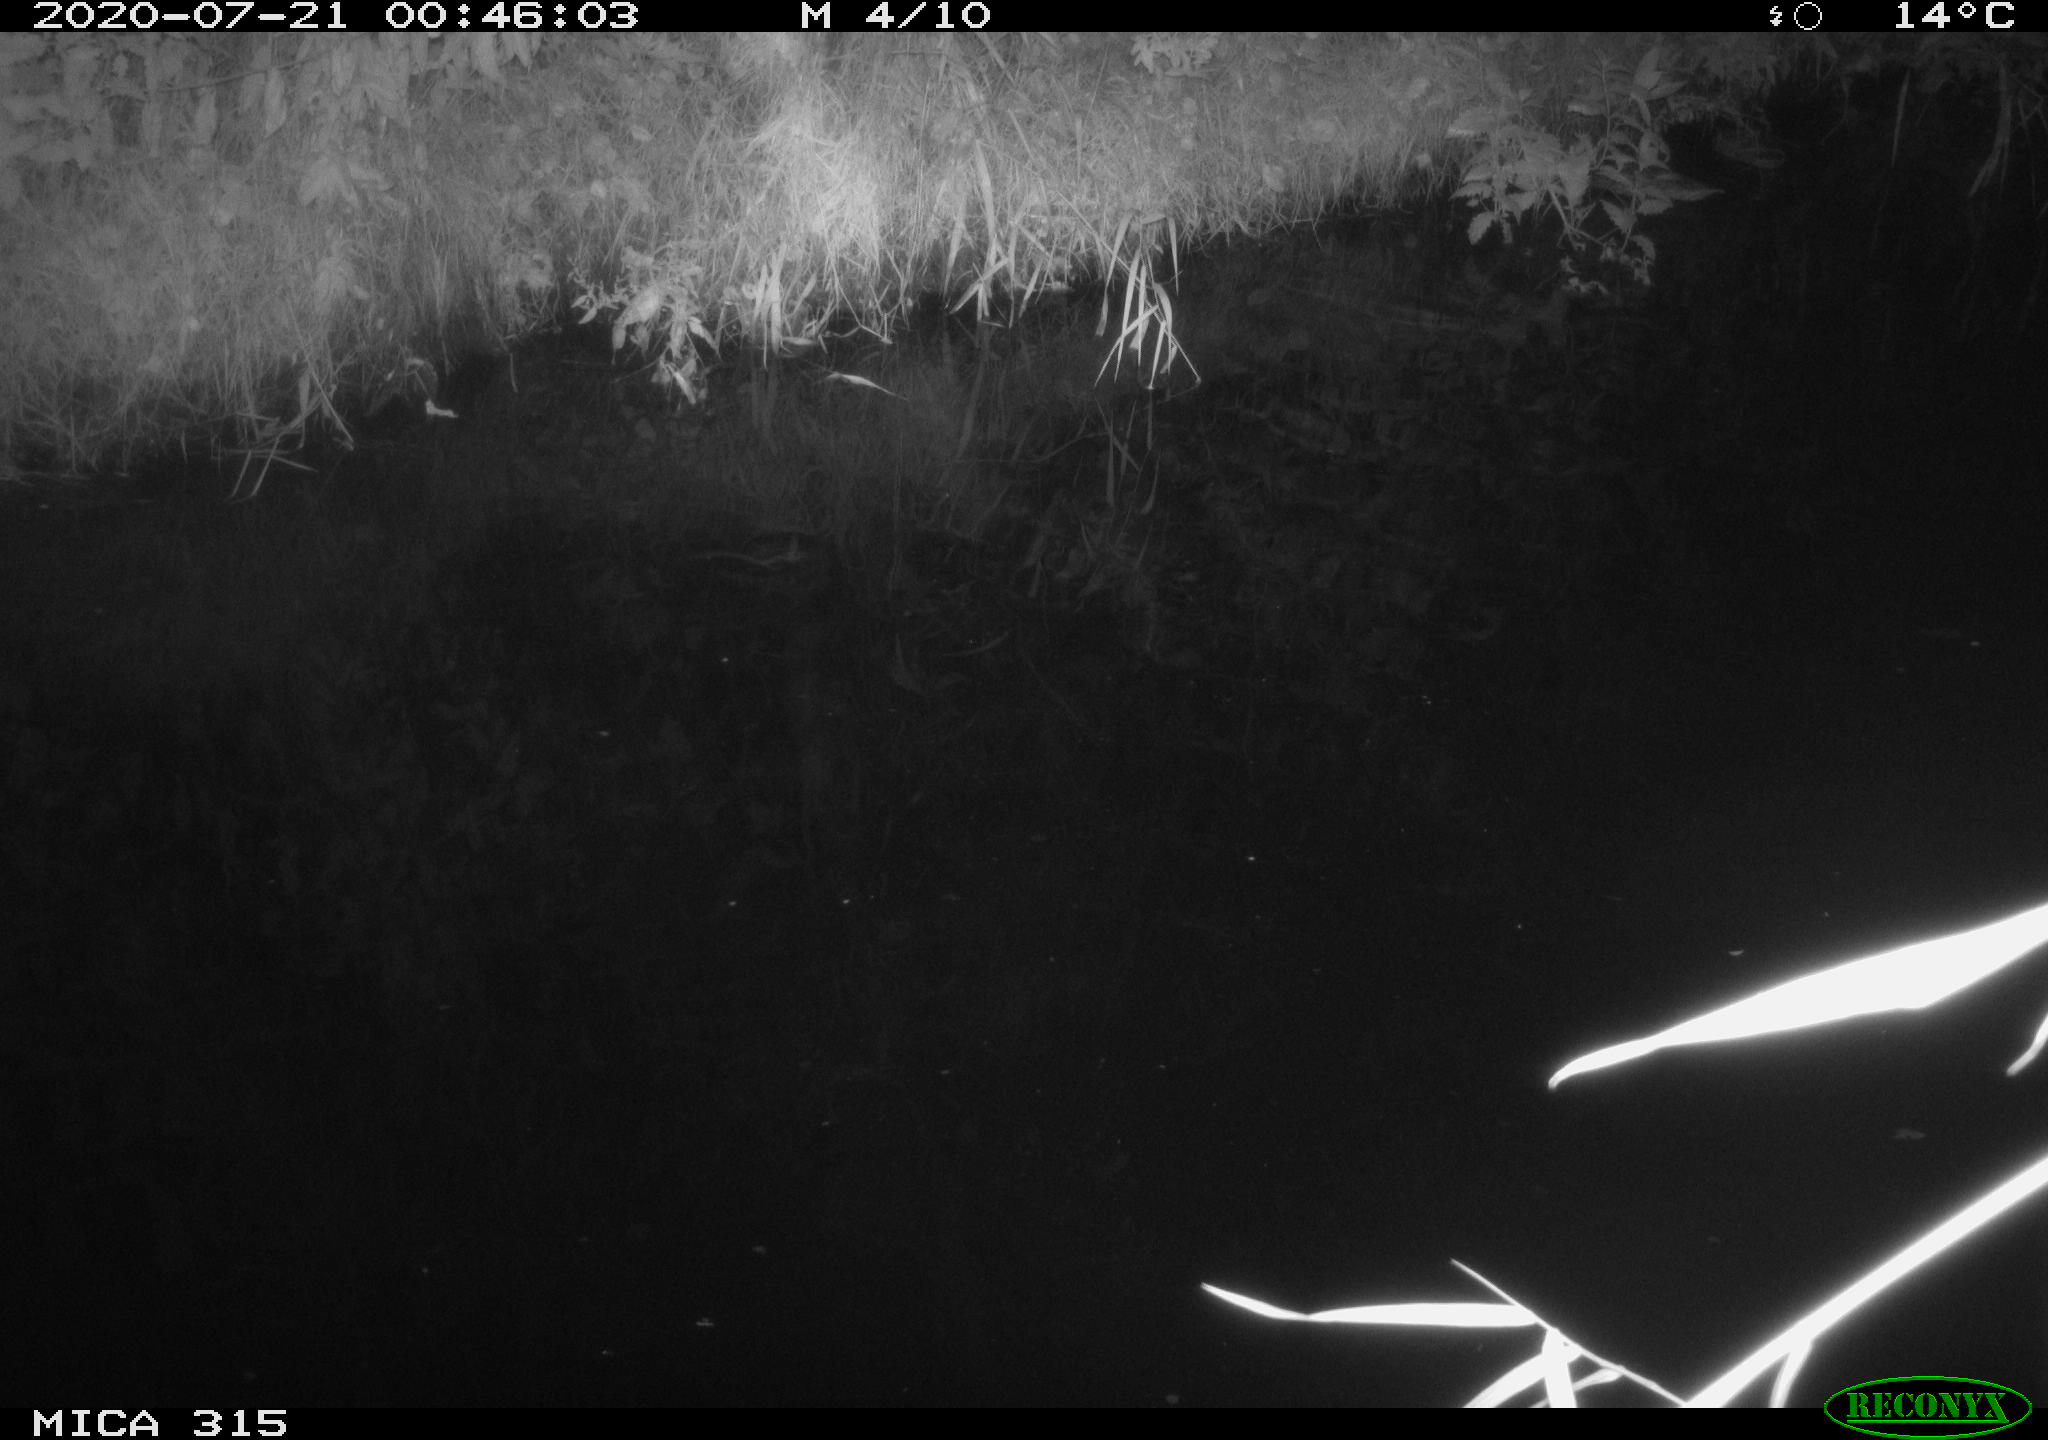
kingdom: Animalia
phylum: Chordata
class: Aves
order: Anseriformes
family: Anatidae
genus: Anas
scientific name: Anas platyrhynchos
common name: Mallard
